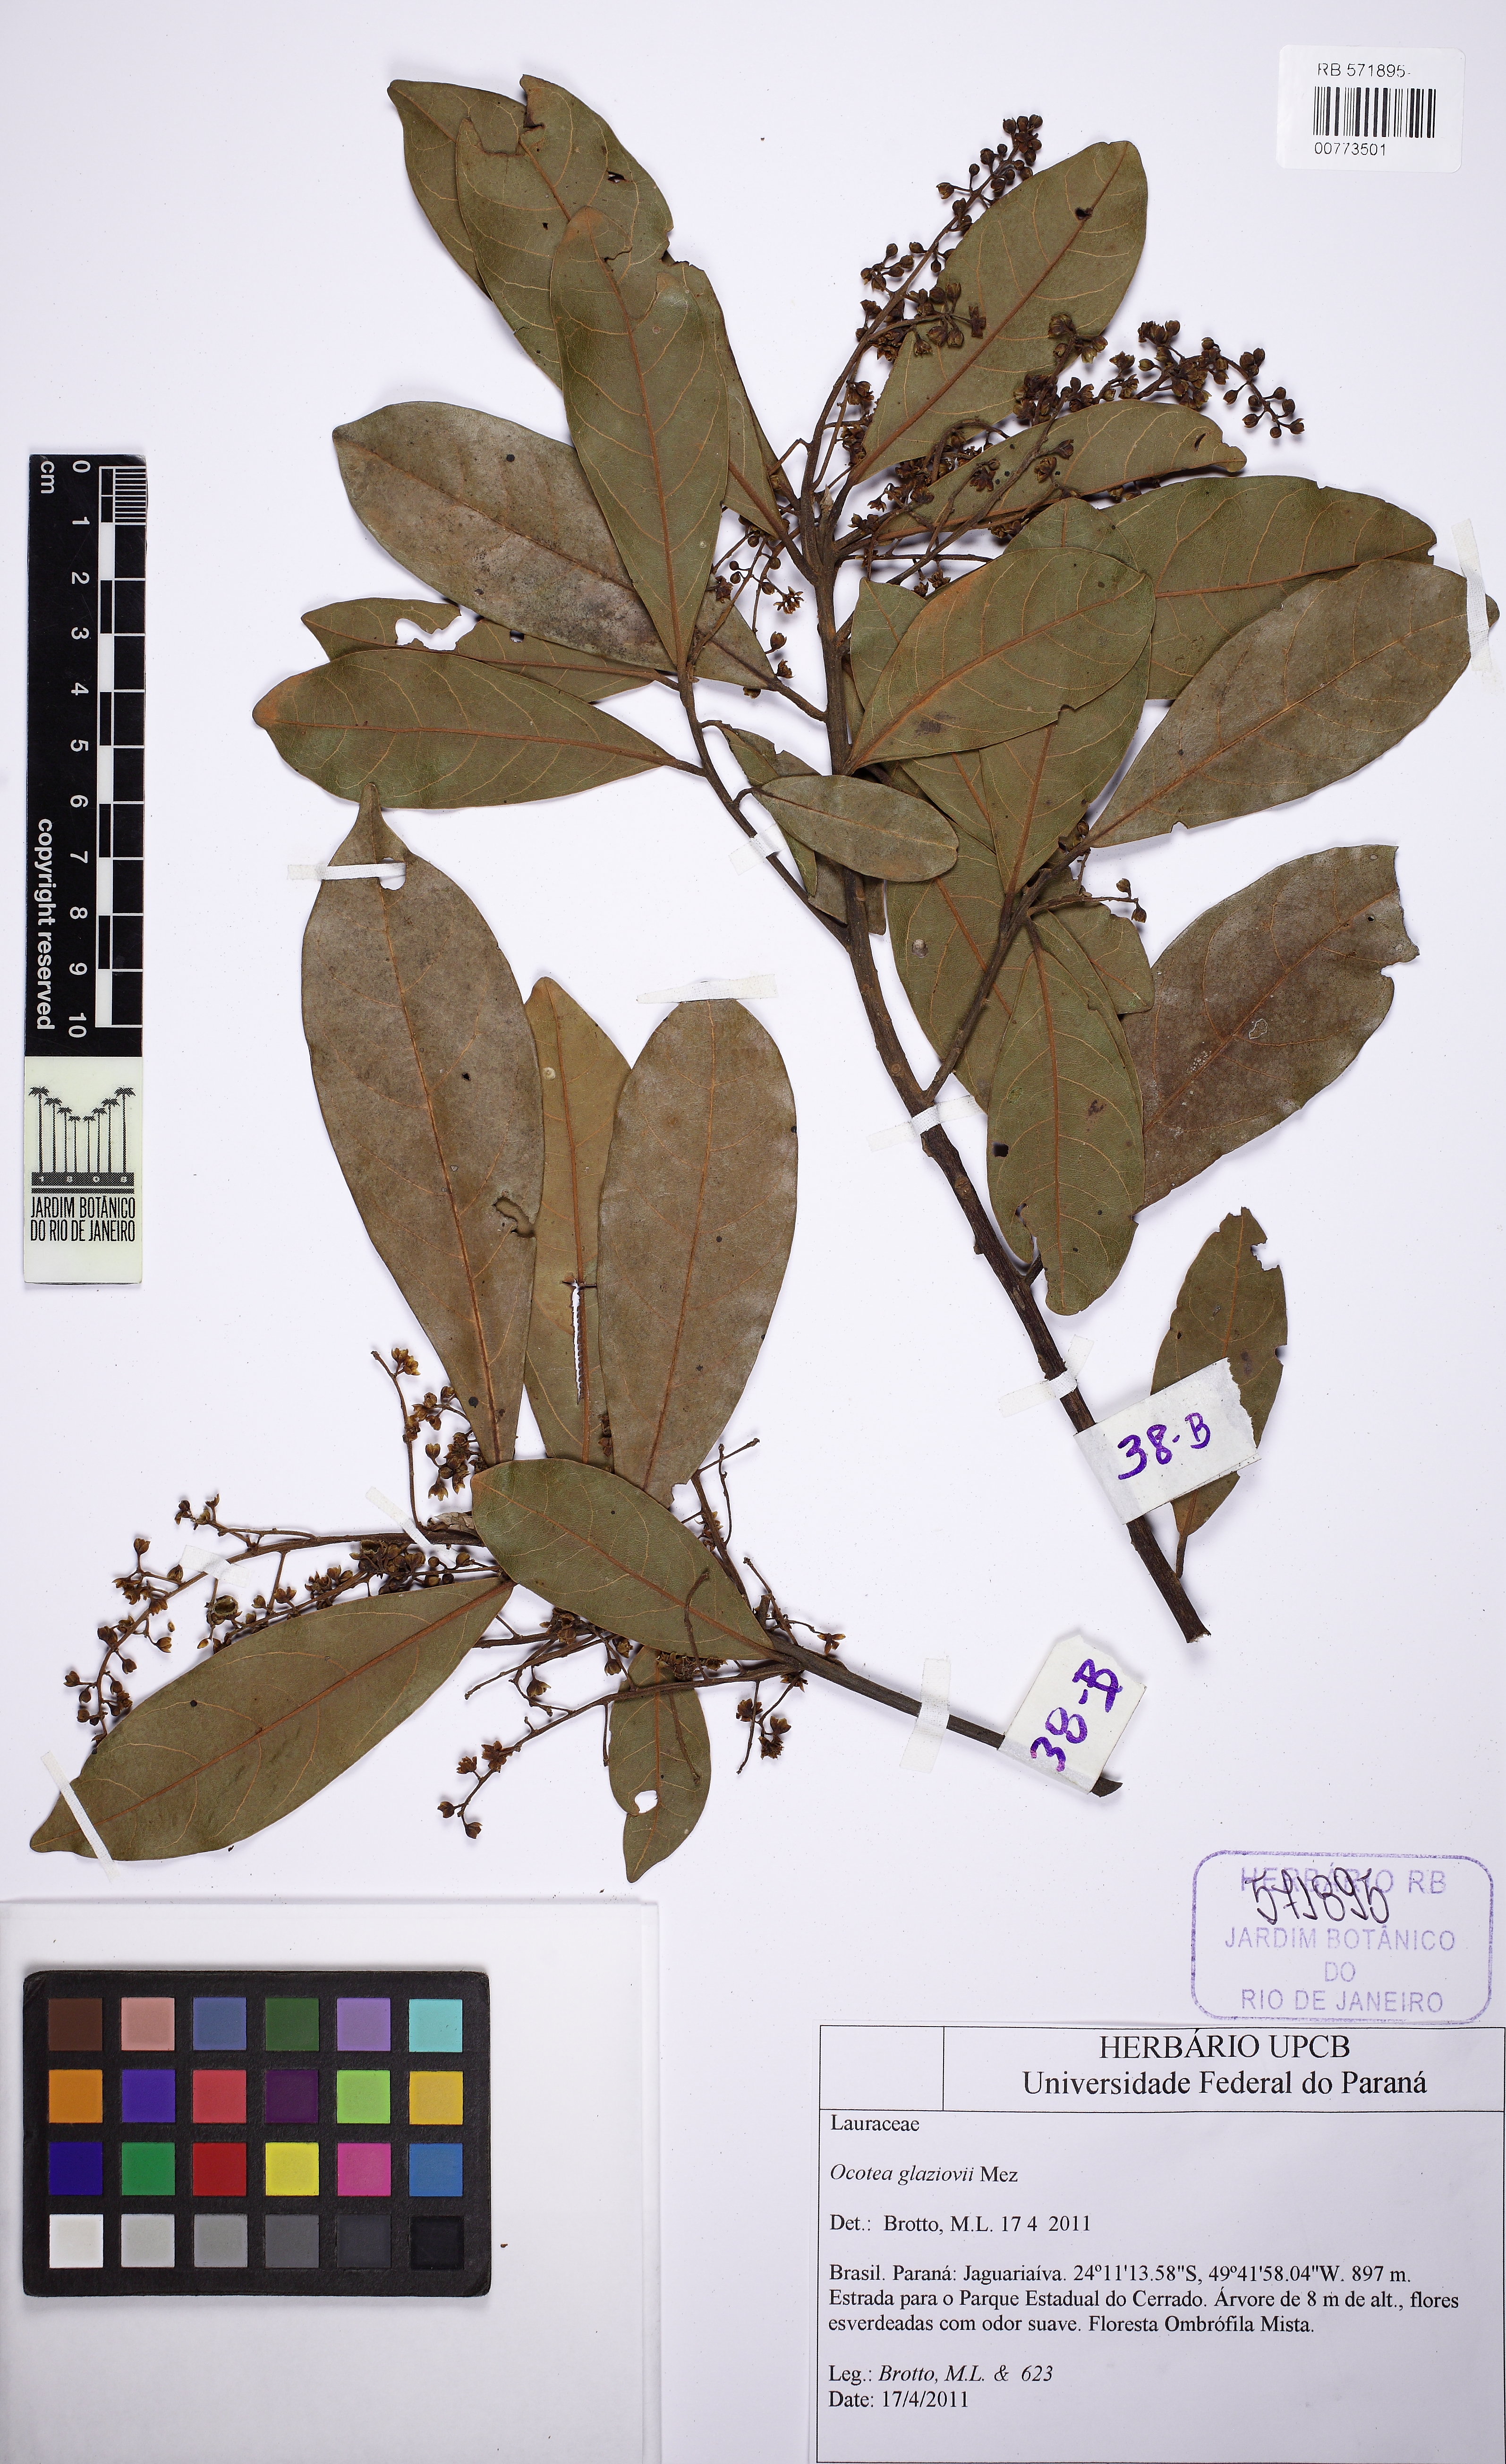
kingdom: Plantae
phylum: Tracheophyta
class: Magnoliopsida
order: Laurales
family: Lauraceae
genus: Ocotea
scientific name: Ocotea glaziovii
